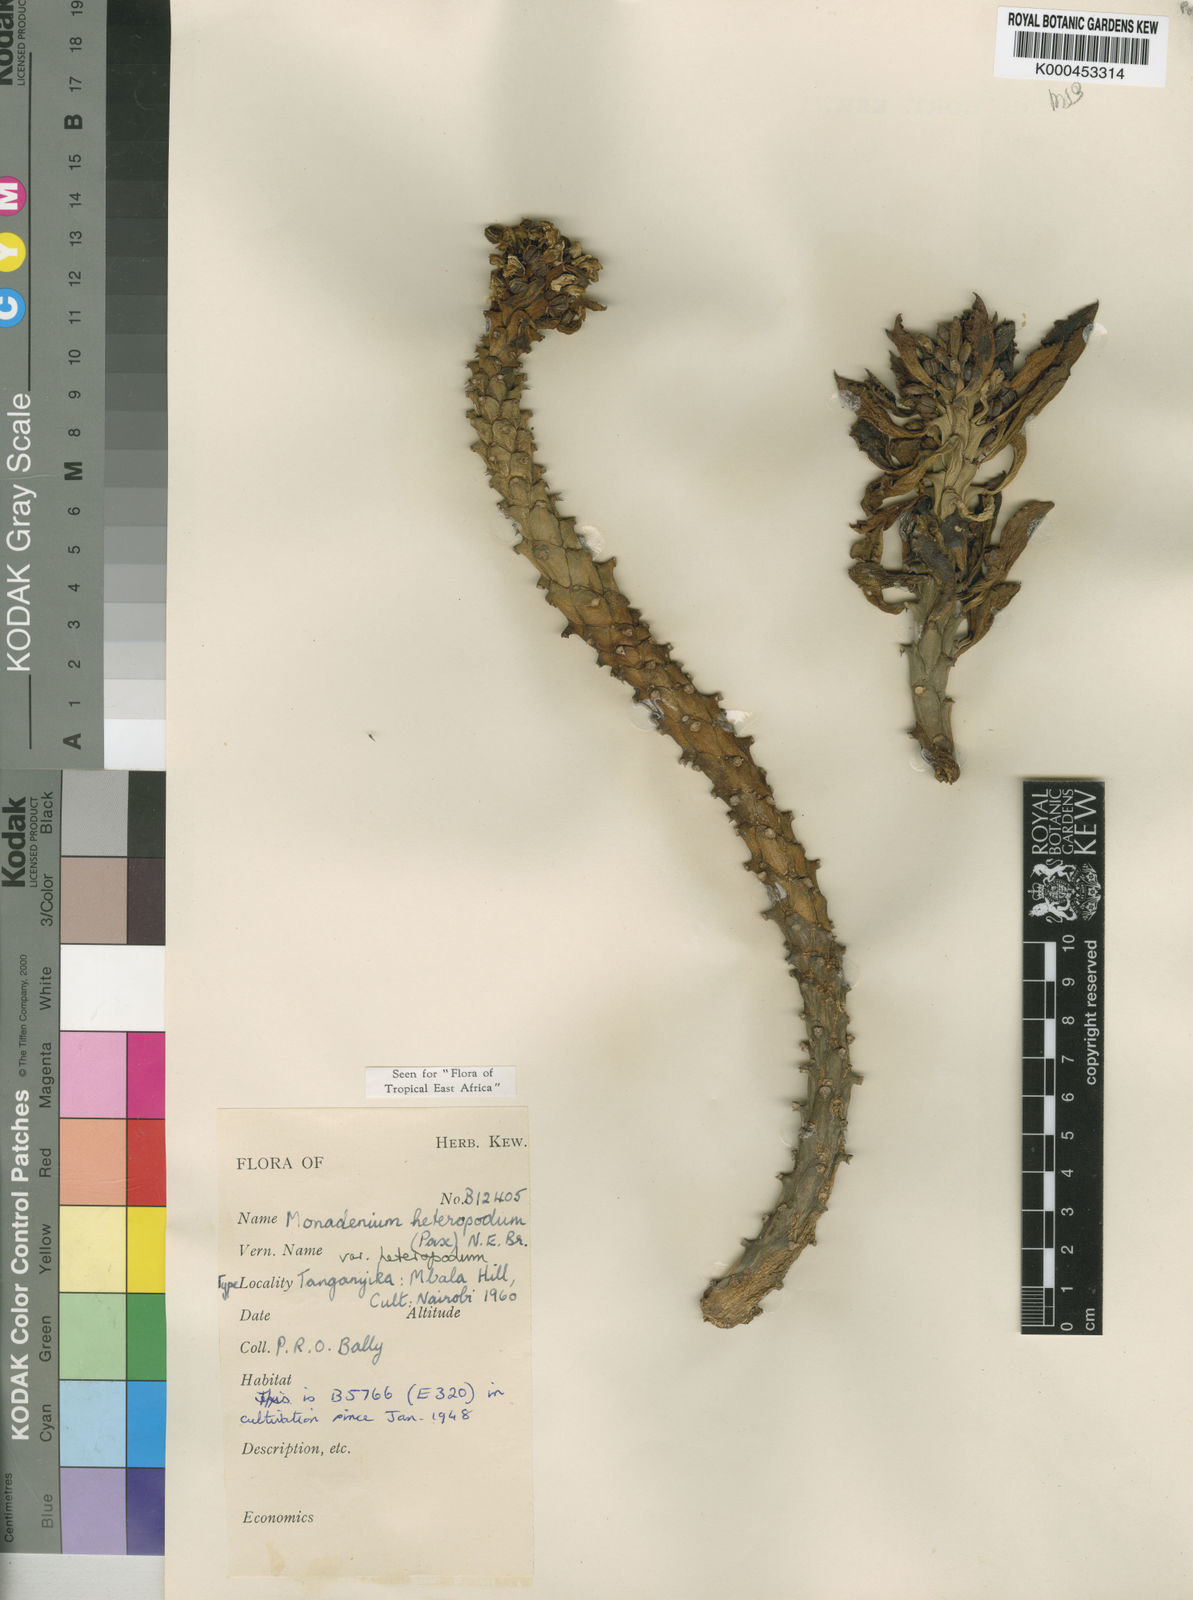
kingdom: Plantae
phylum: Tracheophyta
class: Magnoliopsida
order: Malpighiales
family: Euphorbiaceae
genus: Euphorbia
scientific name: Euphorbia heteropodum
